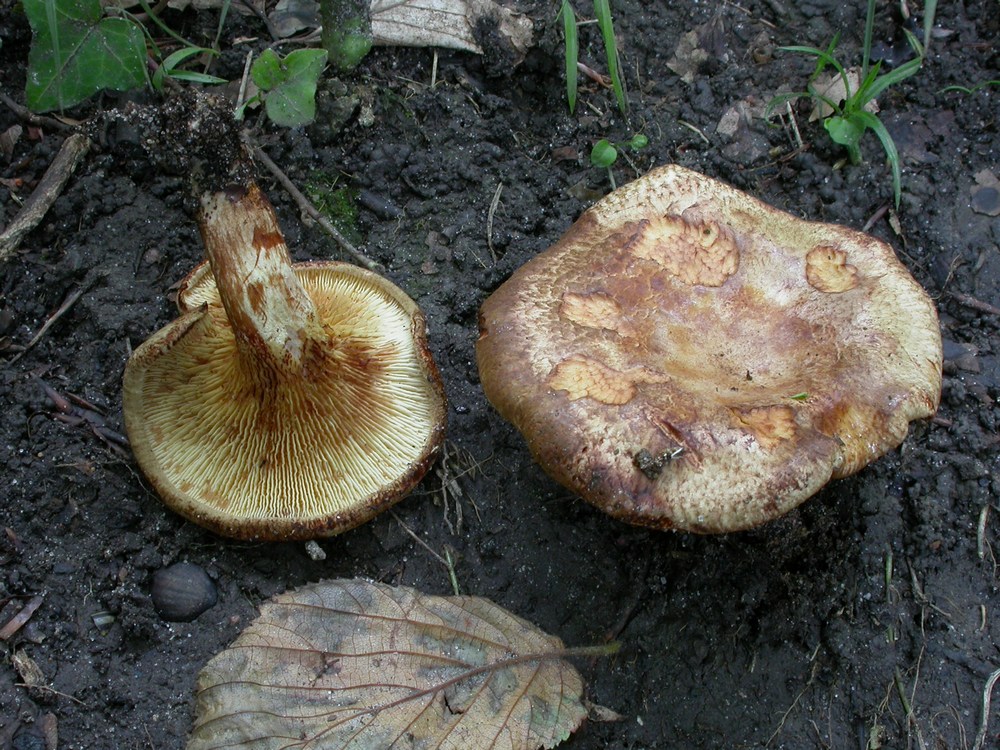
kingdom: Fungi
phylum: Basidiomycota
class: Agaricomycetes
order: Boletales
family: Paxillaceae
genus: Paxillus
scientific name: Paxillus rubicundulus
